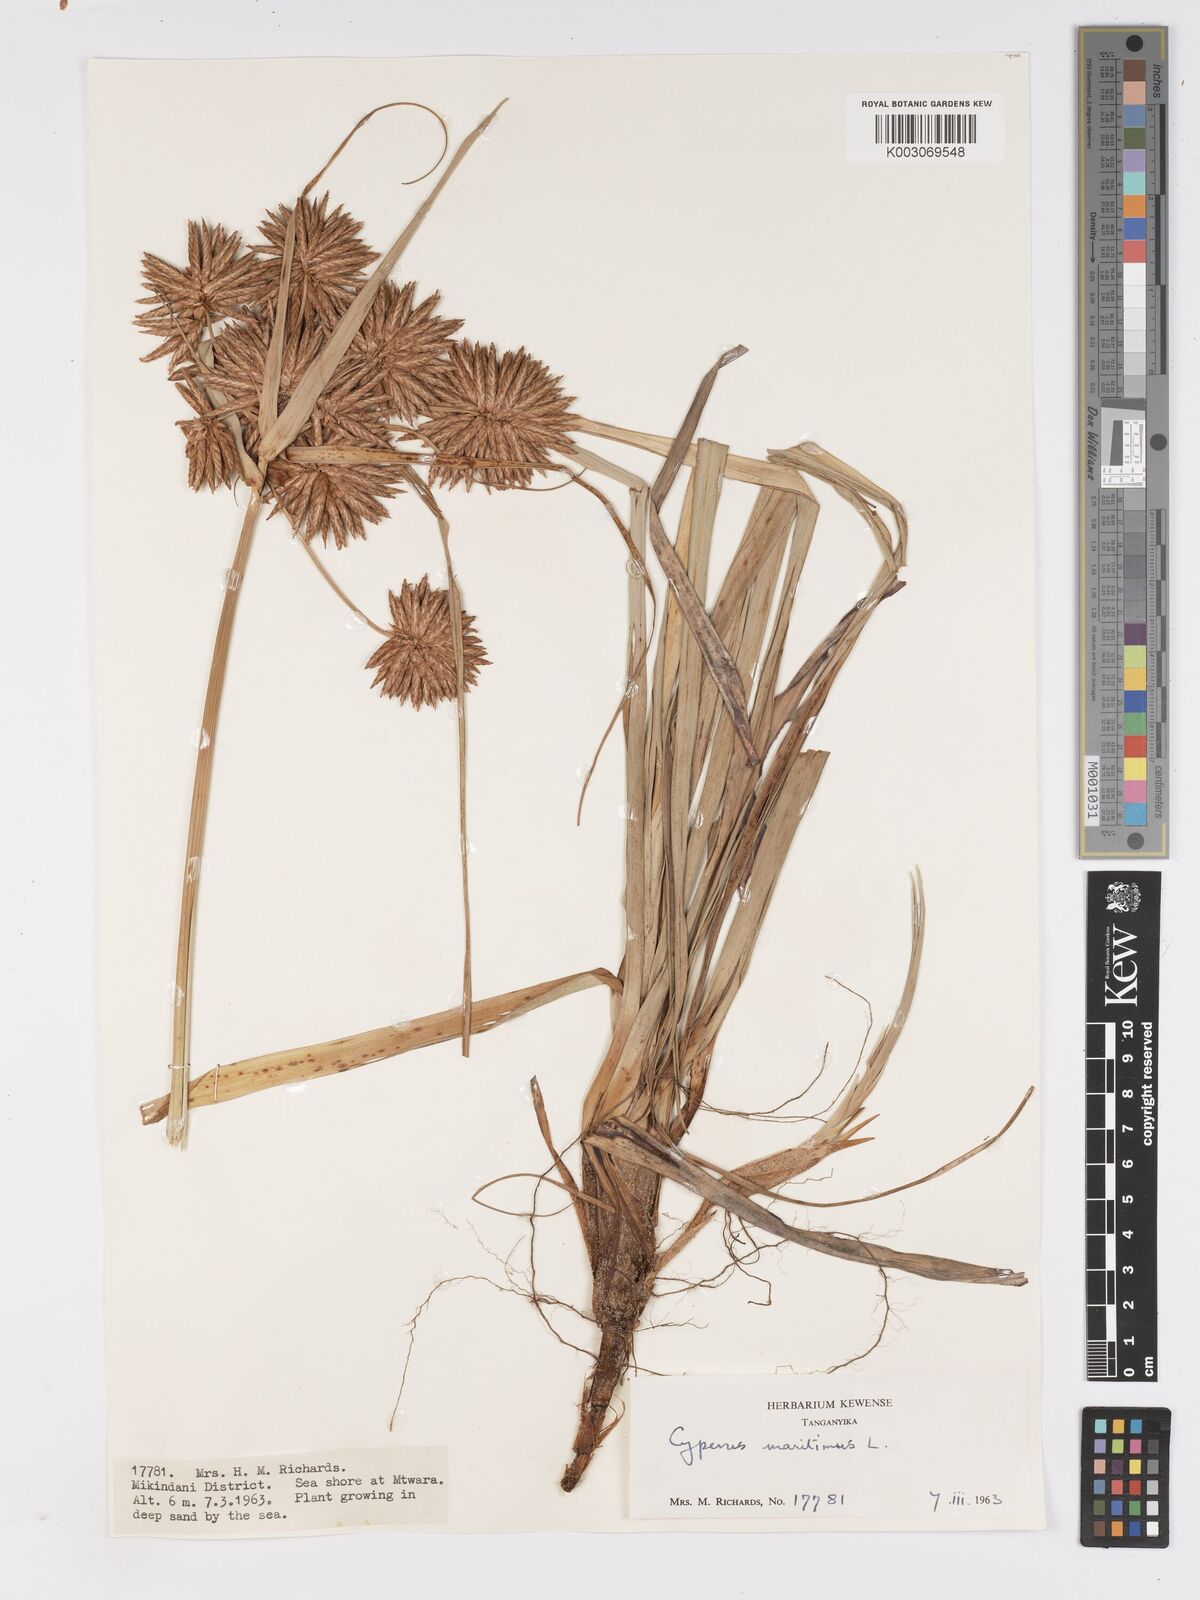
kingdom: Plantae
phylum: Tracheophyta
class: Liliopsida
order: Poales
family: Cyperaceae
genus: Cyperus
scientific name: Cyperus crassipes
